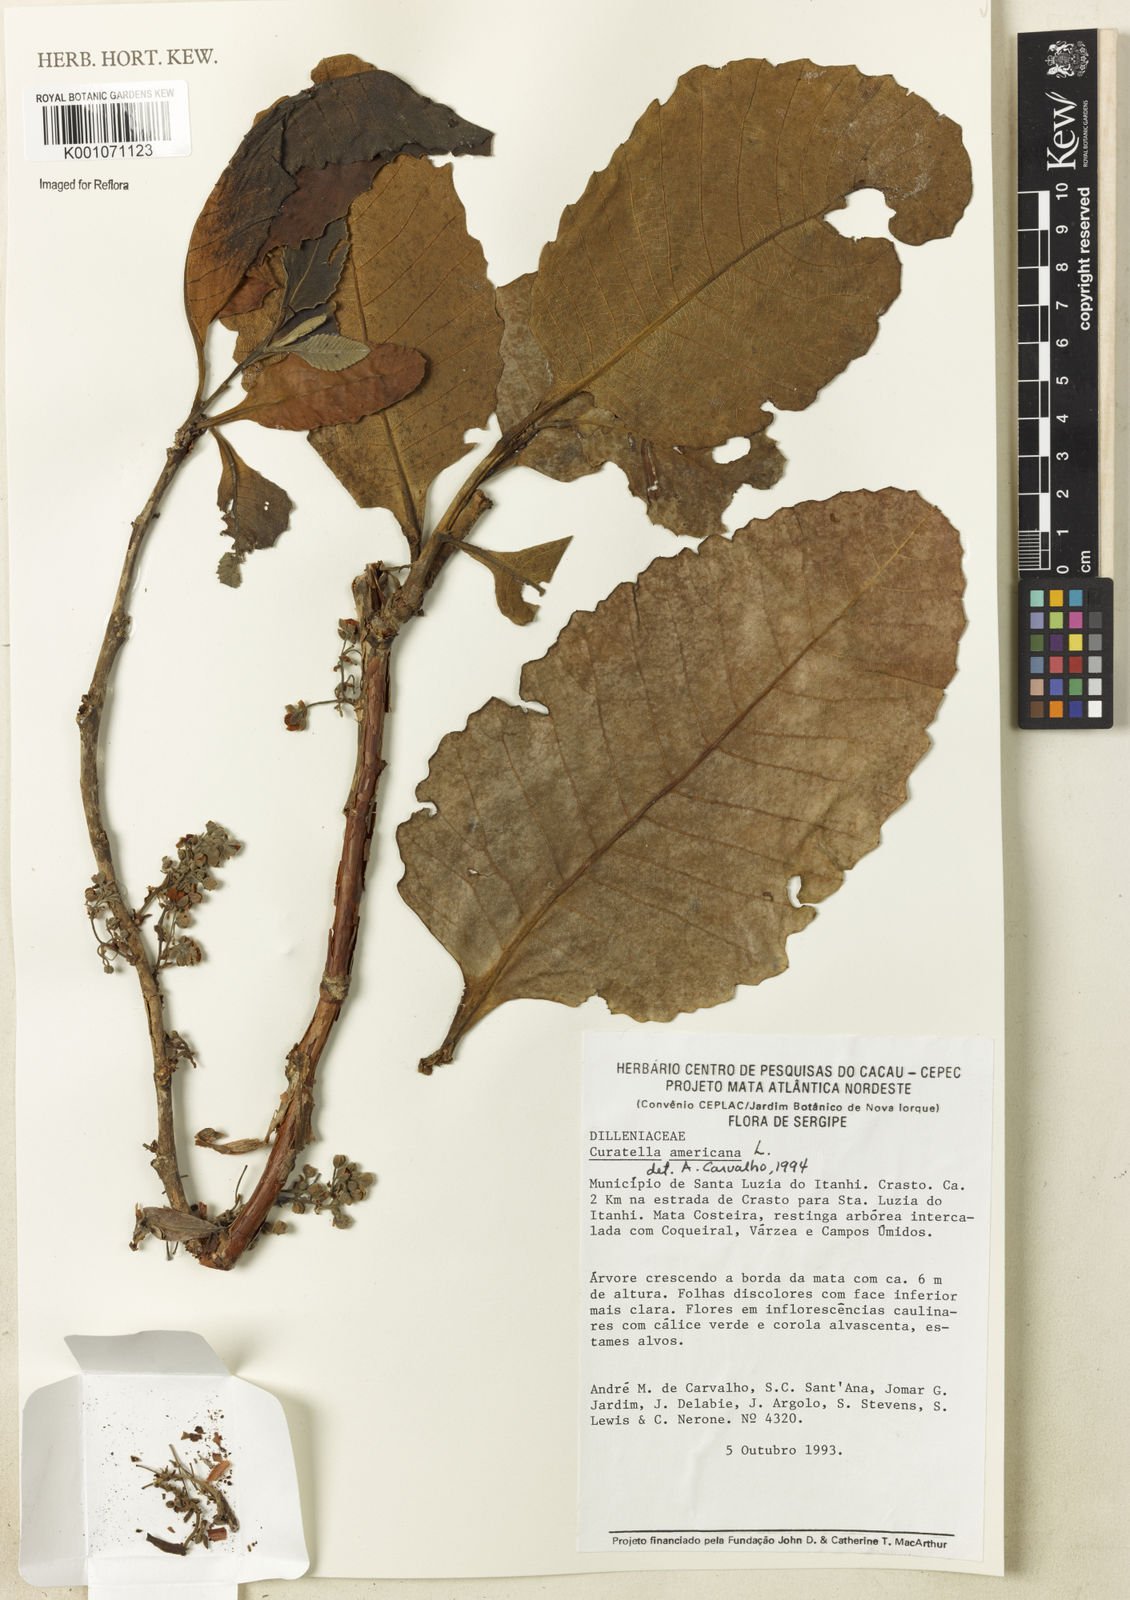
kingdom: Plantae
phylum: Tracheophyta
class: Magnoliopsida
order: Dilleniales
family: Dilleniaceae
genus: Curatella
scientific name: Curatella americana
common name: Sandpaper tree
